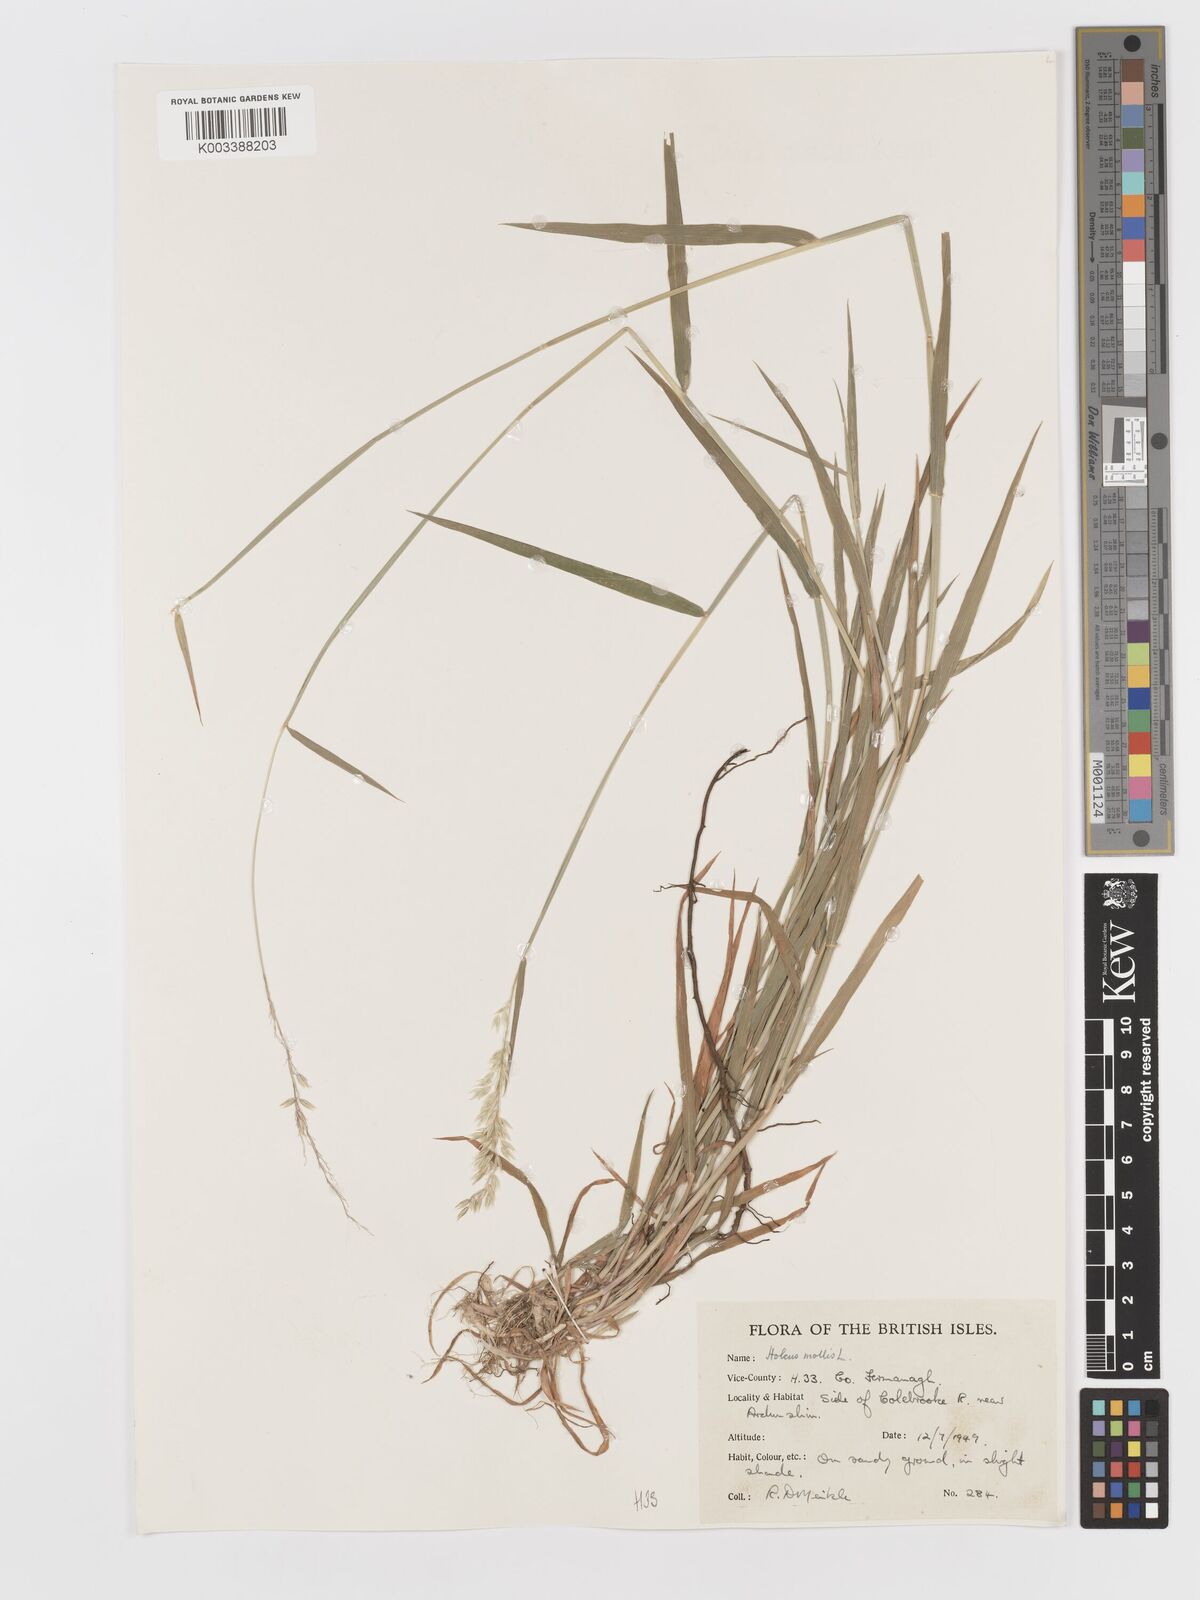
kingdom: Plantae
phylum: Tracheophyta
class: Liliopsida
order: Poales
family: Poaceae
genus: Holcus
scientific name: Holcus mollis
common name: Creeping velvetgrass
